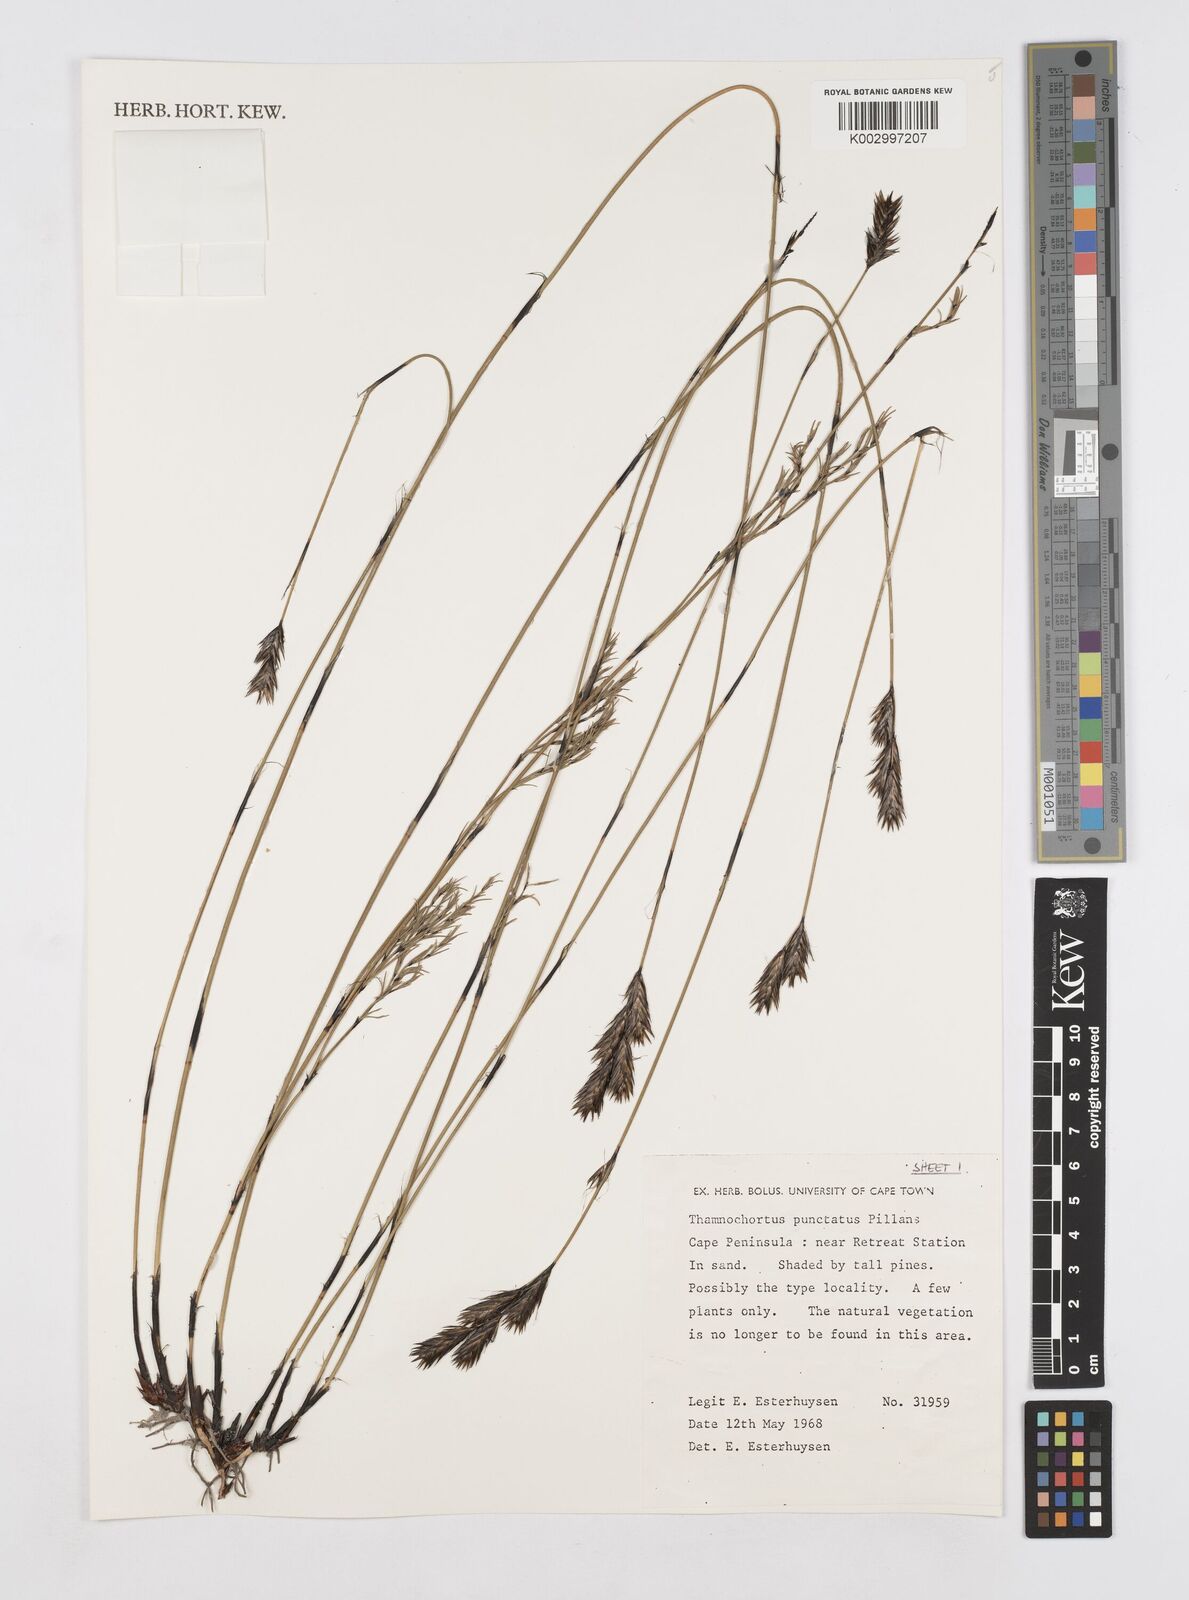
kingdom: Plantae
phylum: Tracheophyta
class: Liliopsida
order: Poales
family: Restionaceae
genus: Thamnochortus
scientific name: Thamnochortus punctatus
